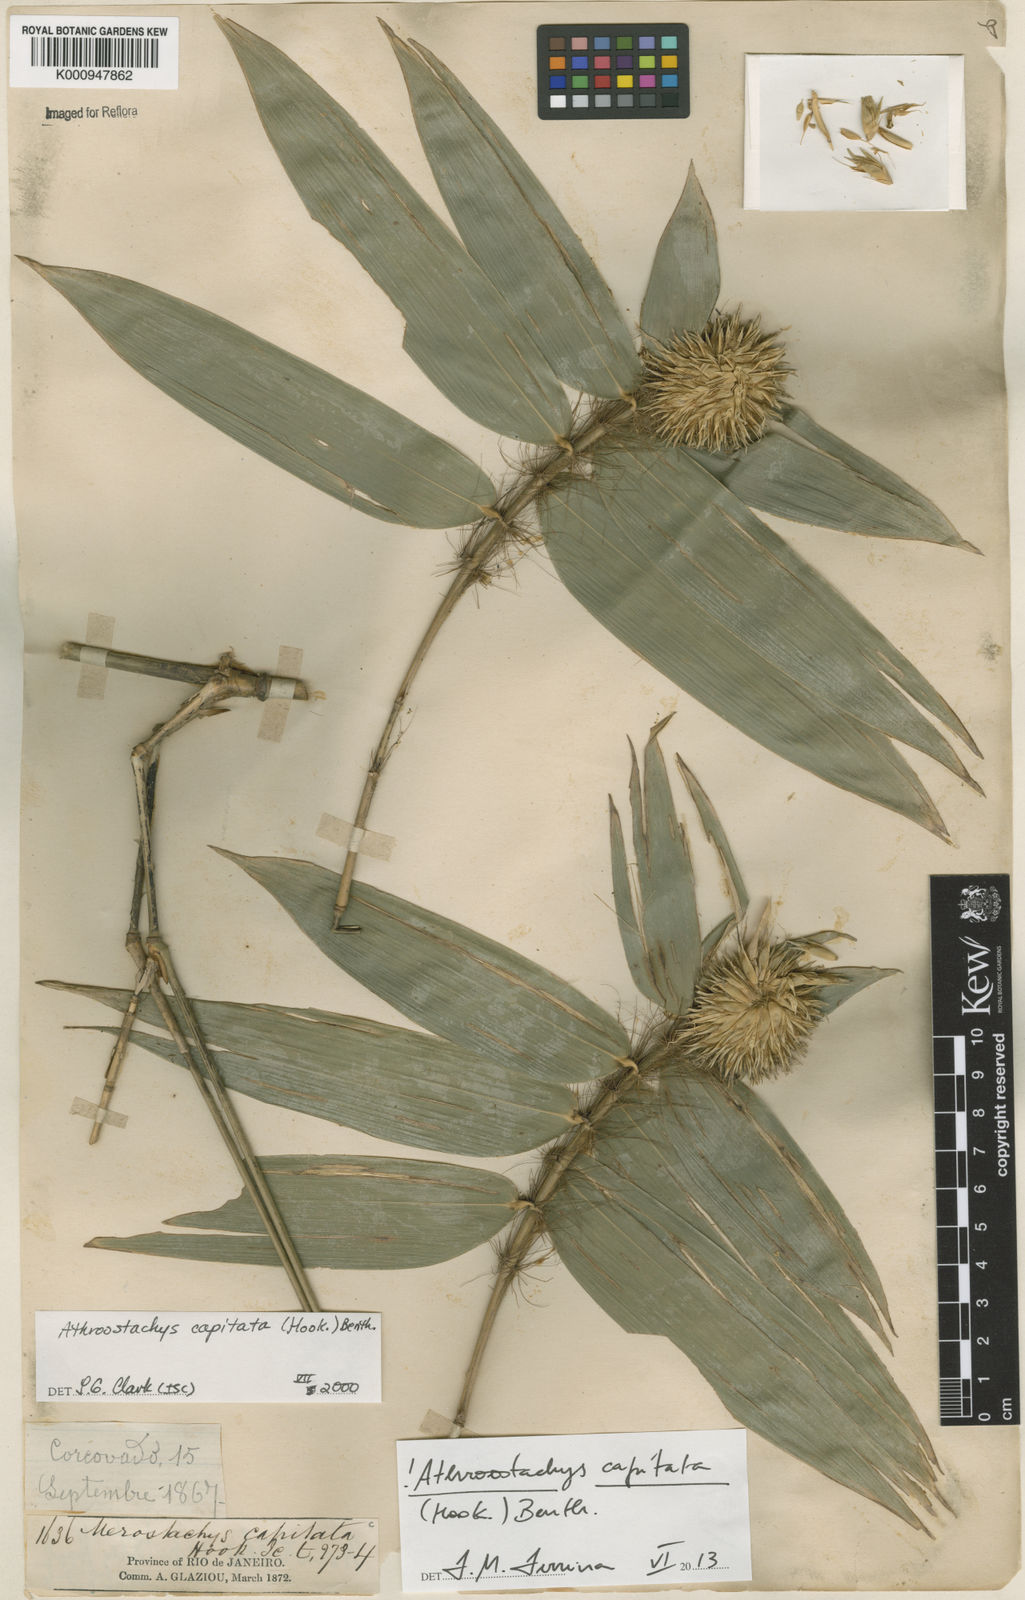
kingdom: Plantae
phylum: Tracheophyta
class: Liliopsida
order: Poales
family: Poaceae
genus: Athroostachys
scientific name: Athroostachys capitata
